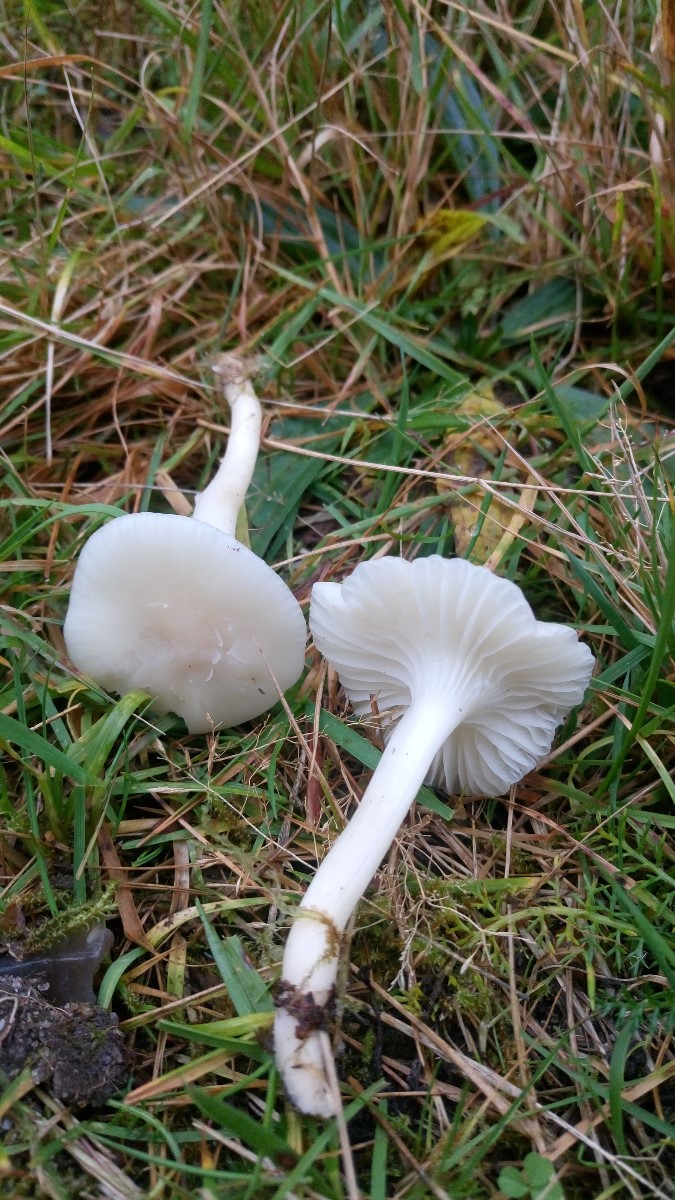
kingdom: Fungi
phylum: Basidiomycota
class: Agaricomycetes
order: Agaricales
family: Hygrophoraceae
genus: Cuphophyllus
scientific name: Cuphophyllus virgineus
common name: snehvid vokshat
